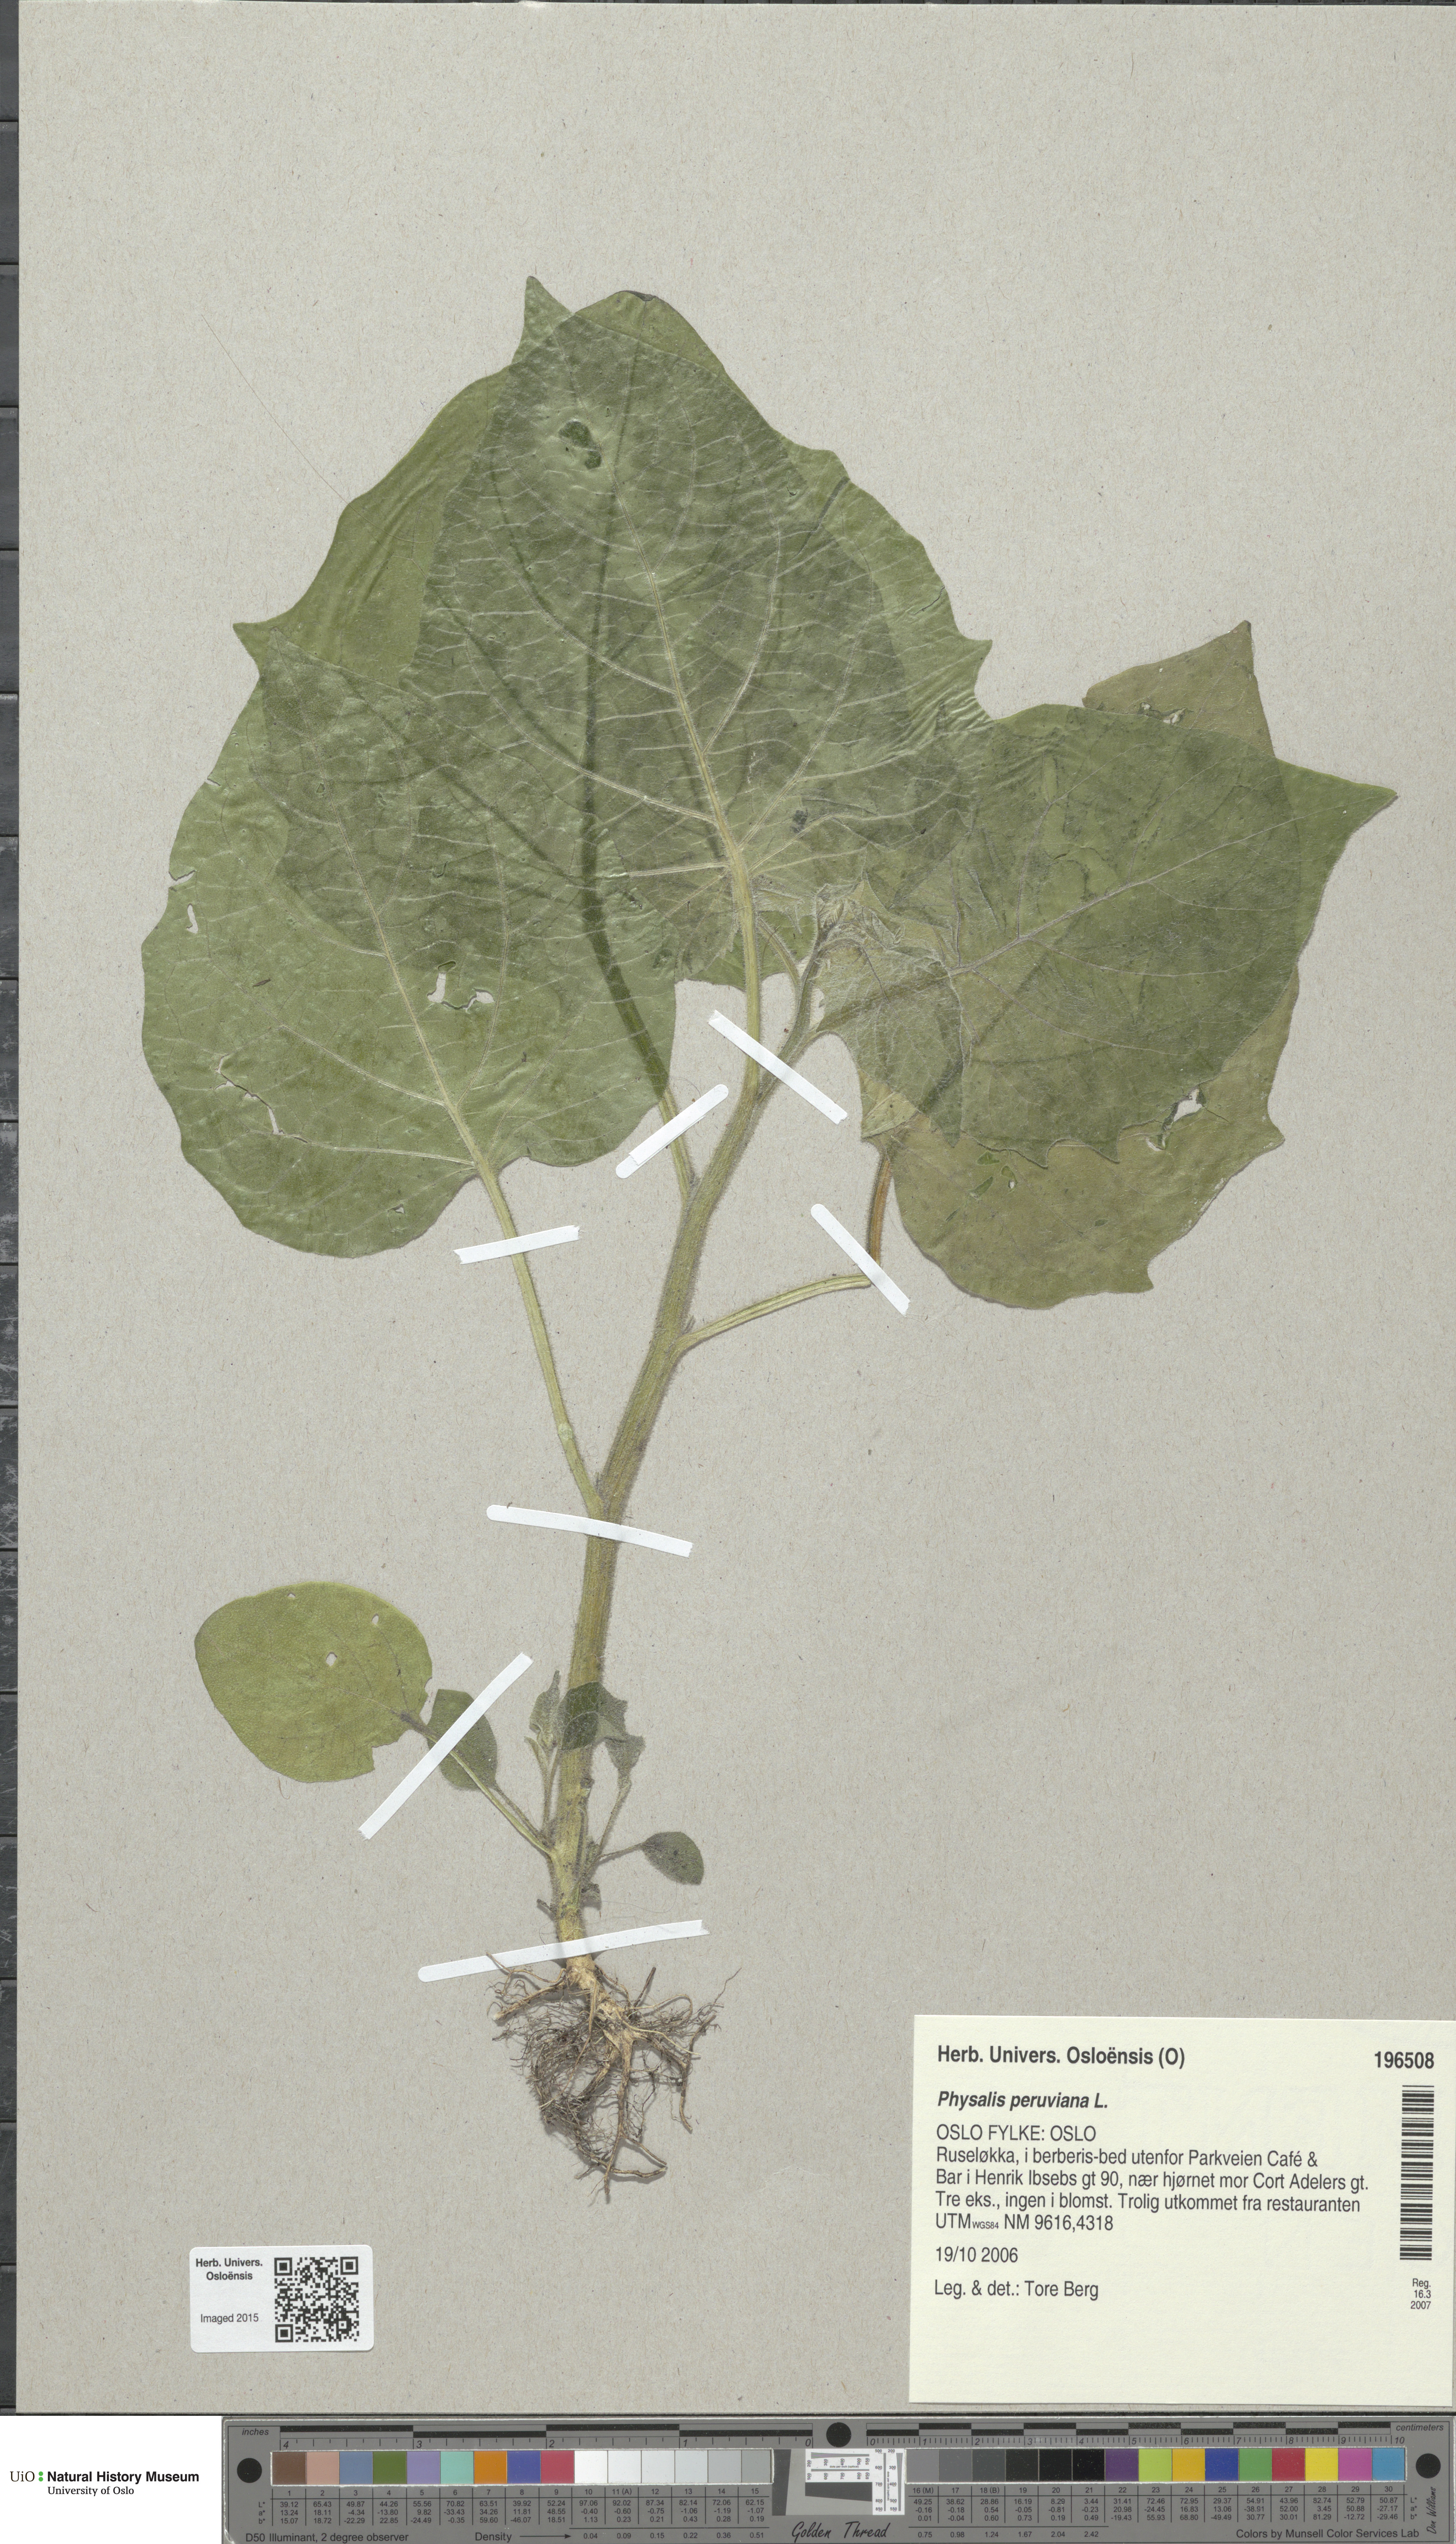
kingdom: Plantae
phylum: Tracheophyta
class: Magnoliopsida
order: Solanales
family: Solanaceae
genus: Physalis
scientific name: Physalis peruviana
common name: Cape-gooseberry
